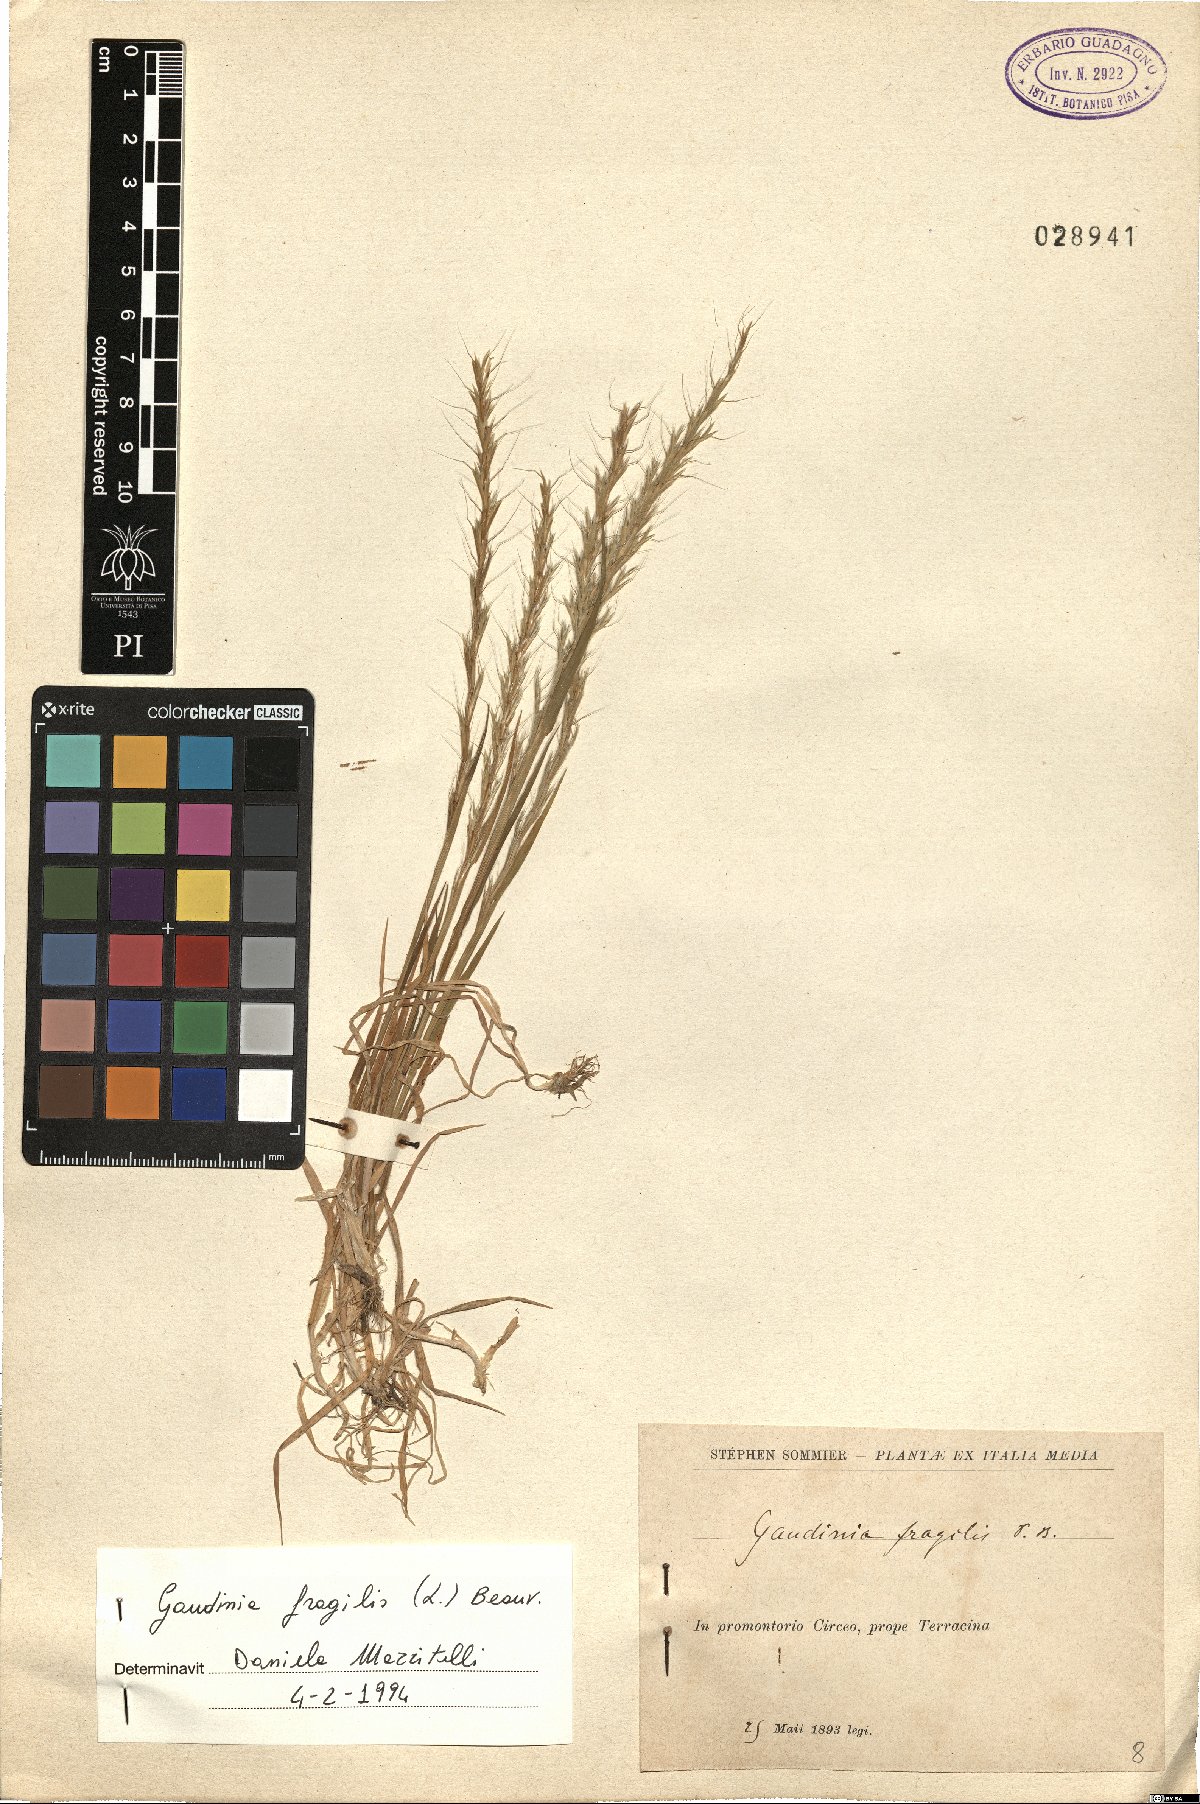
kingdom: Plantae
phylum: Tracheophyta
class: Liliopsida
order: Poales
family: Poaceae
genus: Gaudinia
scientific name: Gaudinia fragilis
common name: French oat-grass
